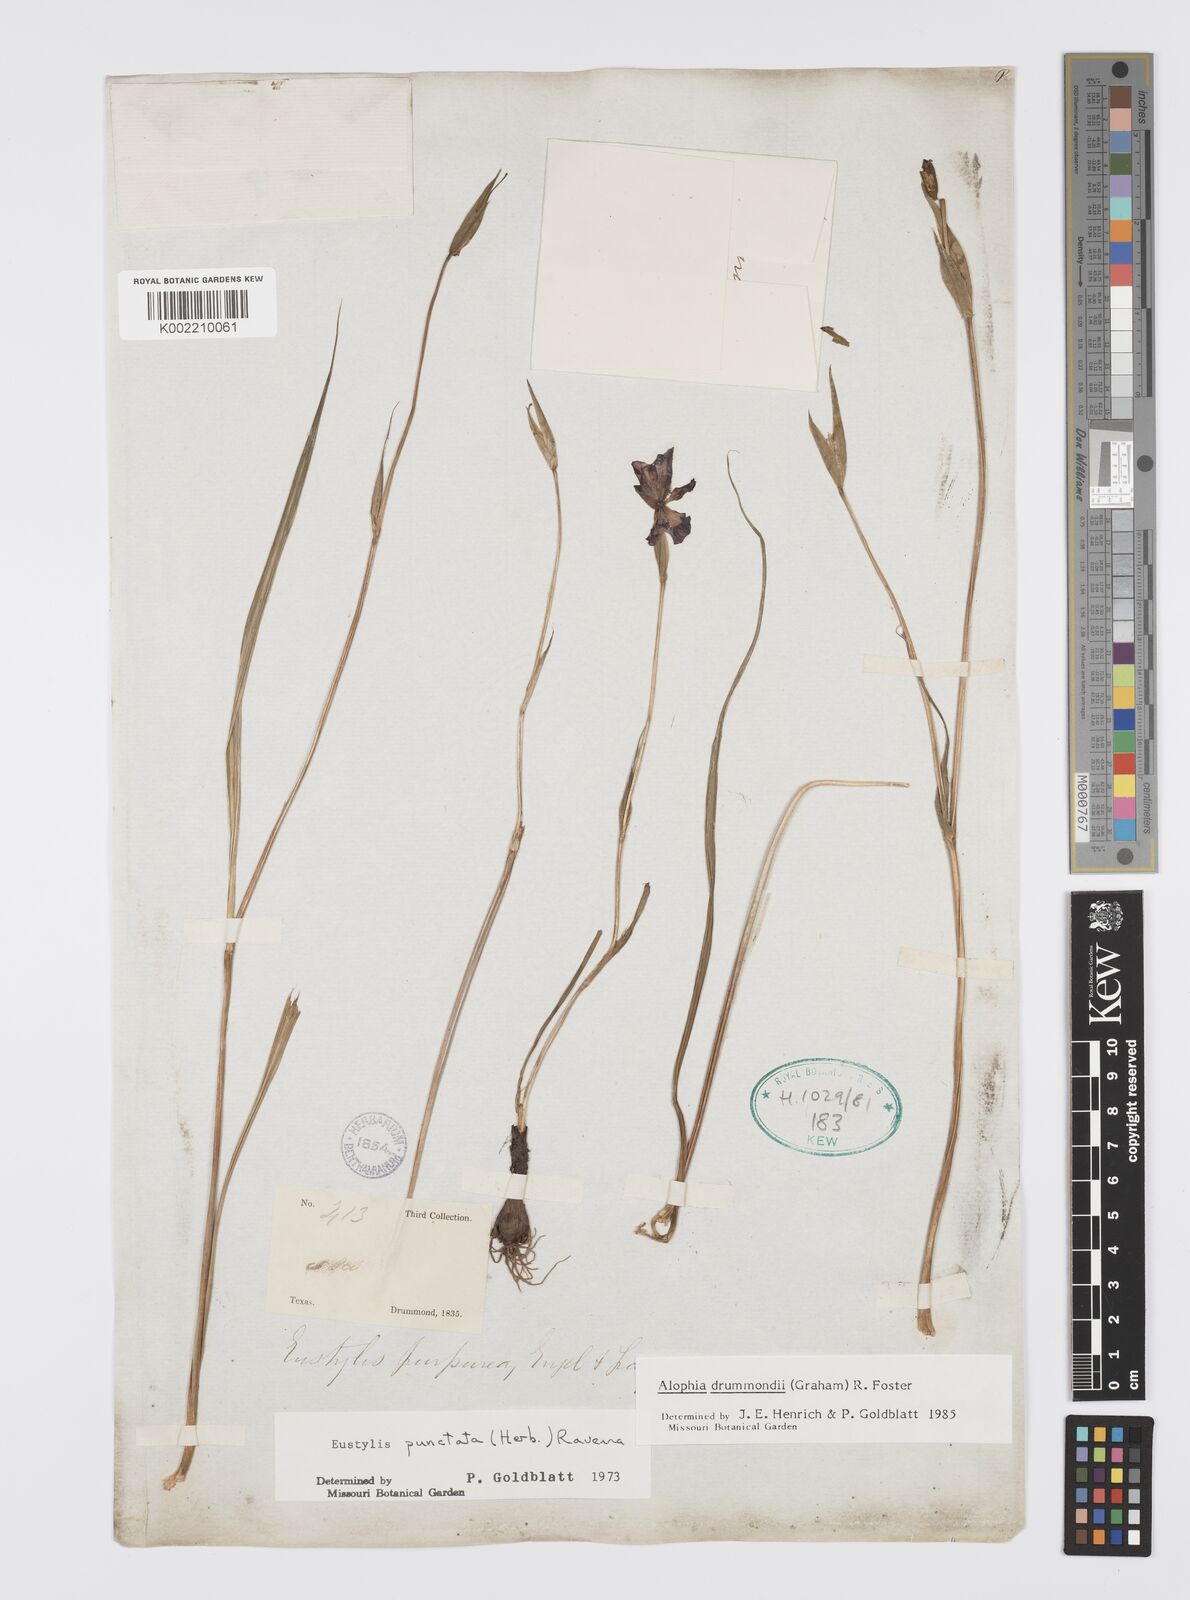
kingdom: Plantae
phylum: Tracheophyta
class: Liliopsida
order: Asparagales
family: Iridaceae
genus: Alophia
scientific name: Alophia drummondii
